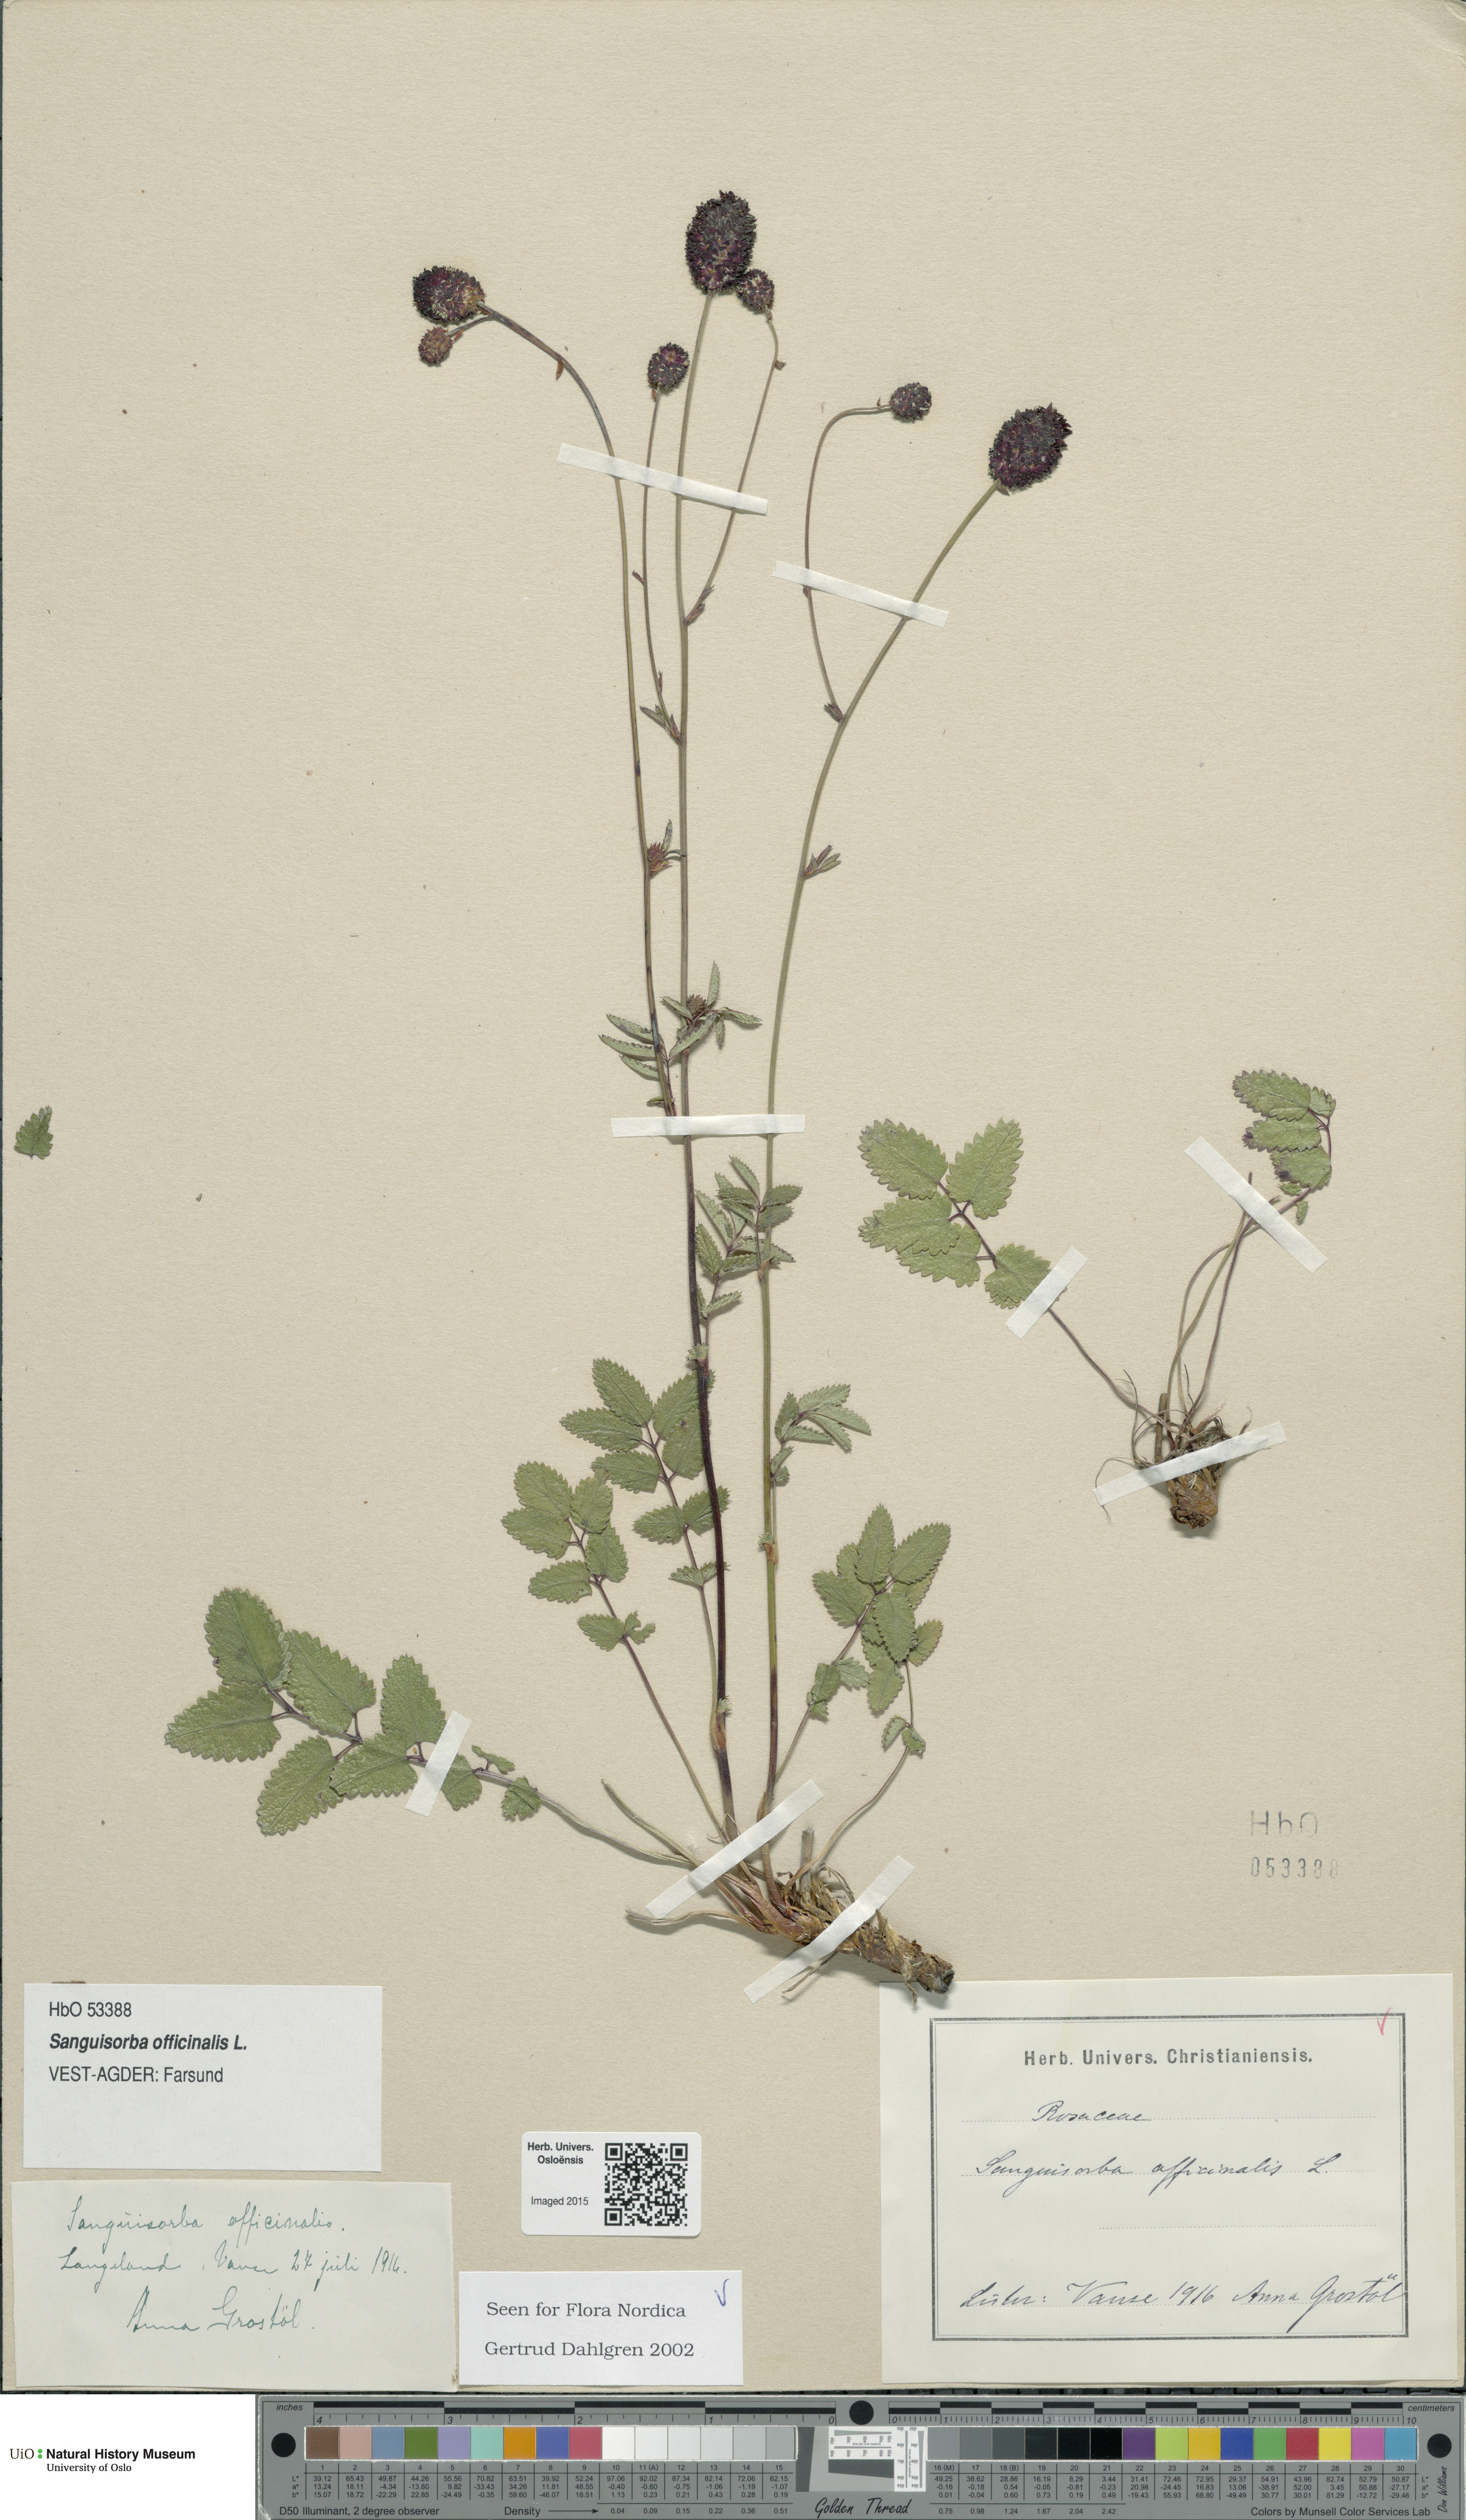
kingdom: Plantae
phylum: Tracheophyta
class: Magnoliopsida
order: Rosales
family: Rosaceae
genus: Sanguisorba
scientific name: Sanguisorba officinalis
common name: Great burnet
